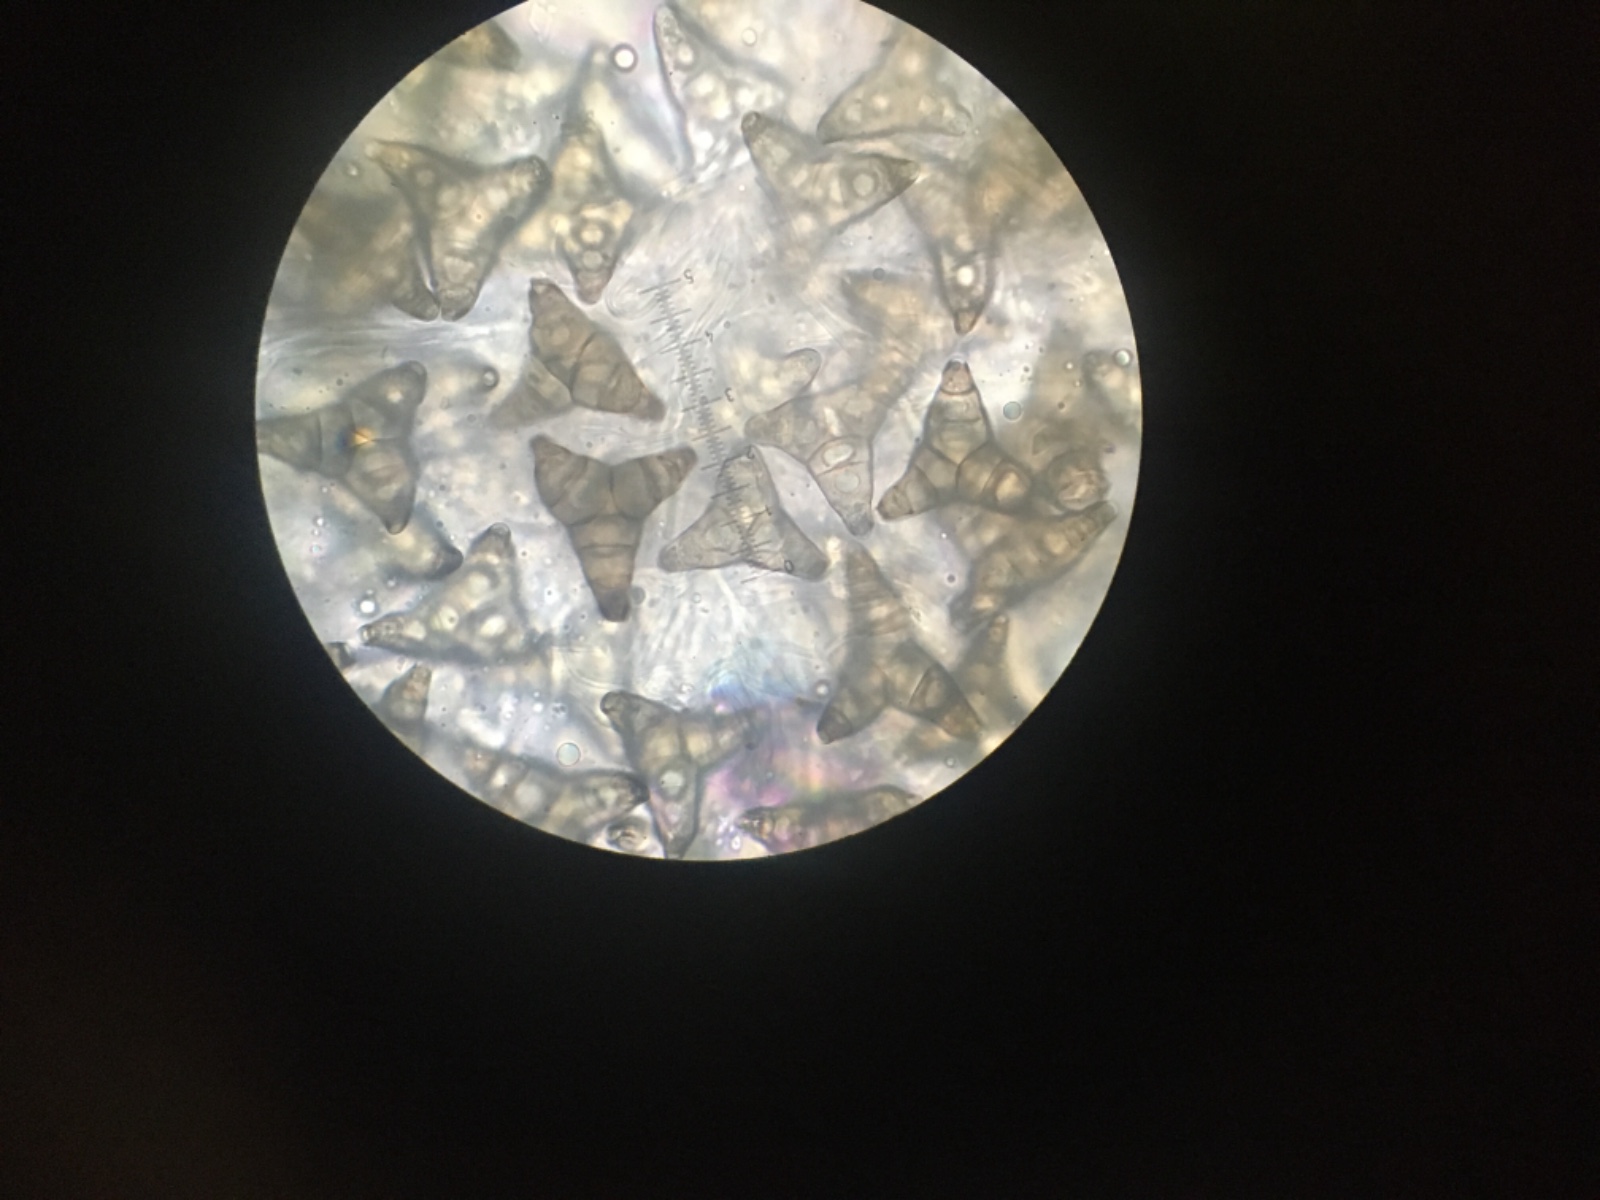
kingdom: Fungi
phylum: Ascomycota
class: Sordariomycetes
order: Diaporthales
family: Asterosporiaceae
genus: Asterosporium
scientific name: Asterosporium asterospermum
